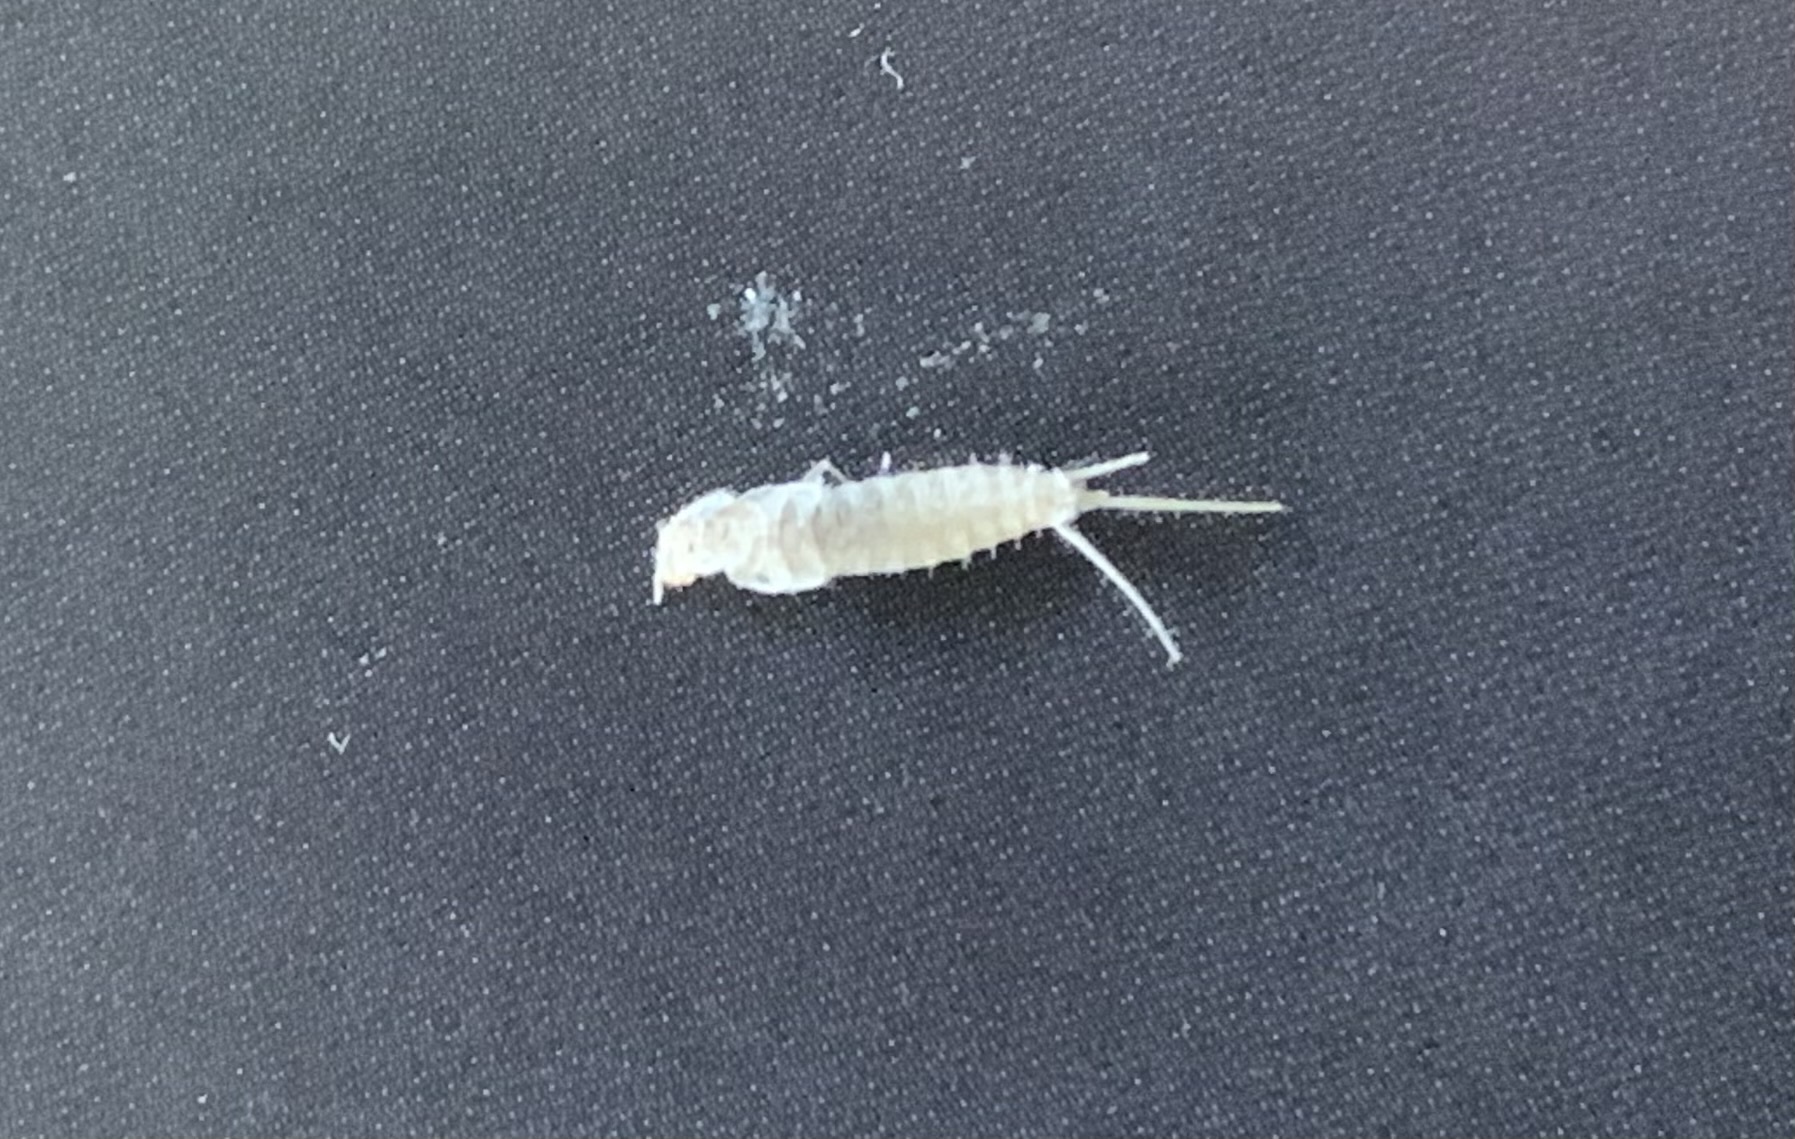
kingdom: Animalia
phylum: Arthropoda
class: Insecta
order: Zygentoma
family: Lepismatidae
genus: Ctenolepisma
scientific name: Ctenolepisma calvum
